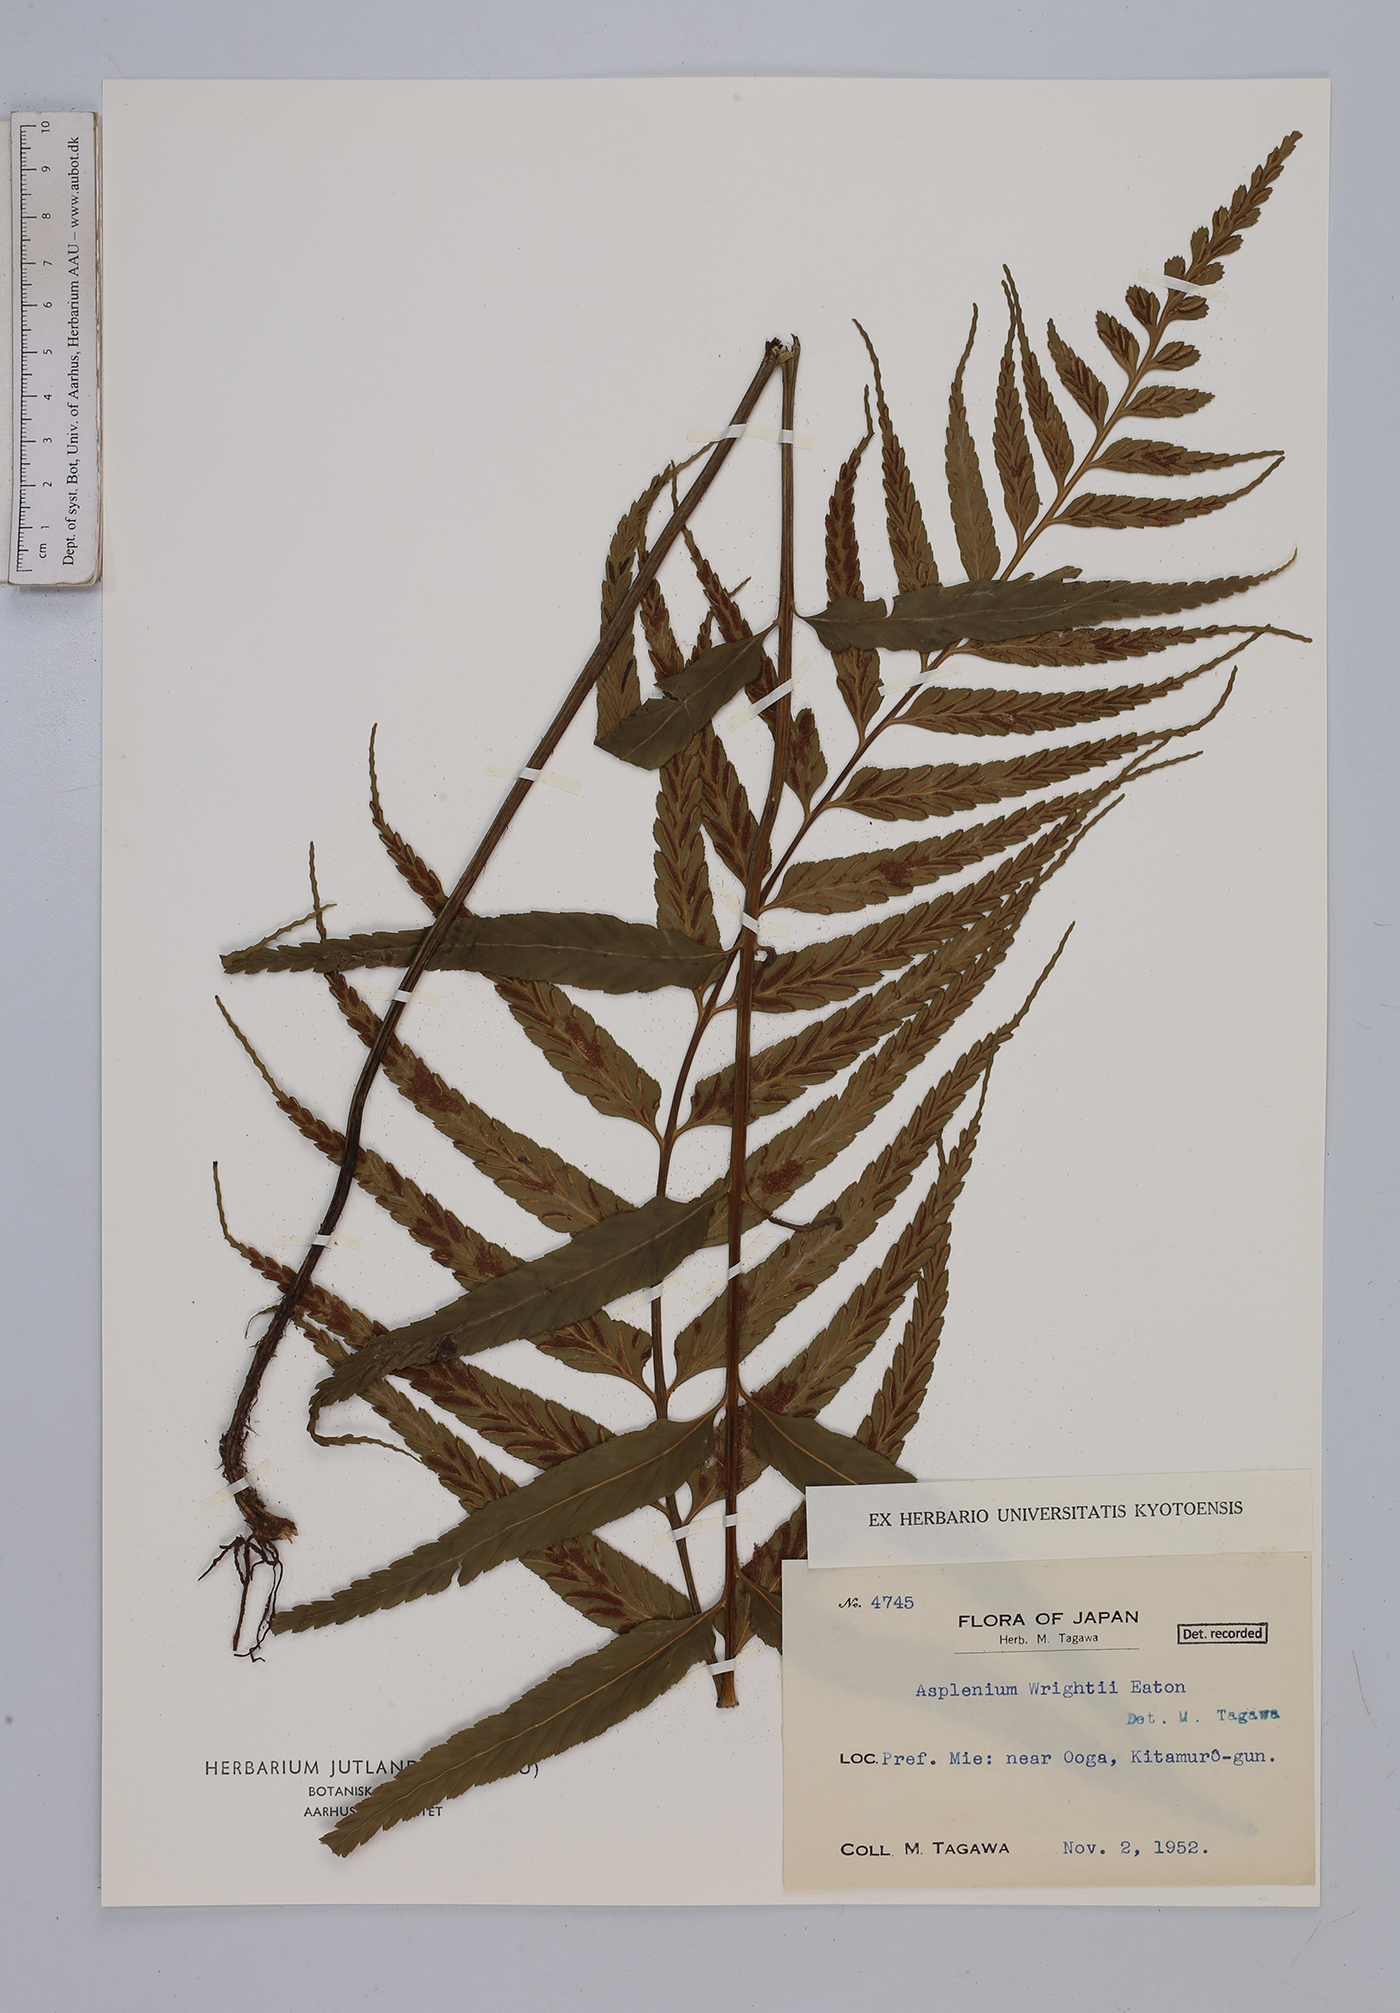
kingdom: Plantae
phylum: Tracheophyta
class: Polypodiopsida
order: Polypodiales
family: Aspleniaceae
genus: Asplenium
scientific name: Asplenium wrightii
